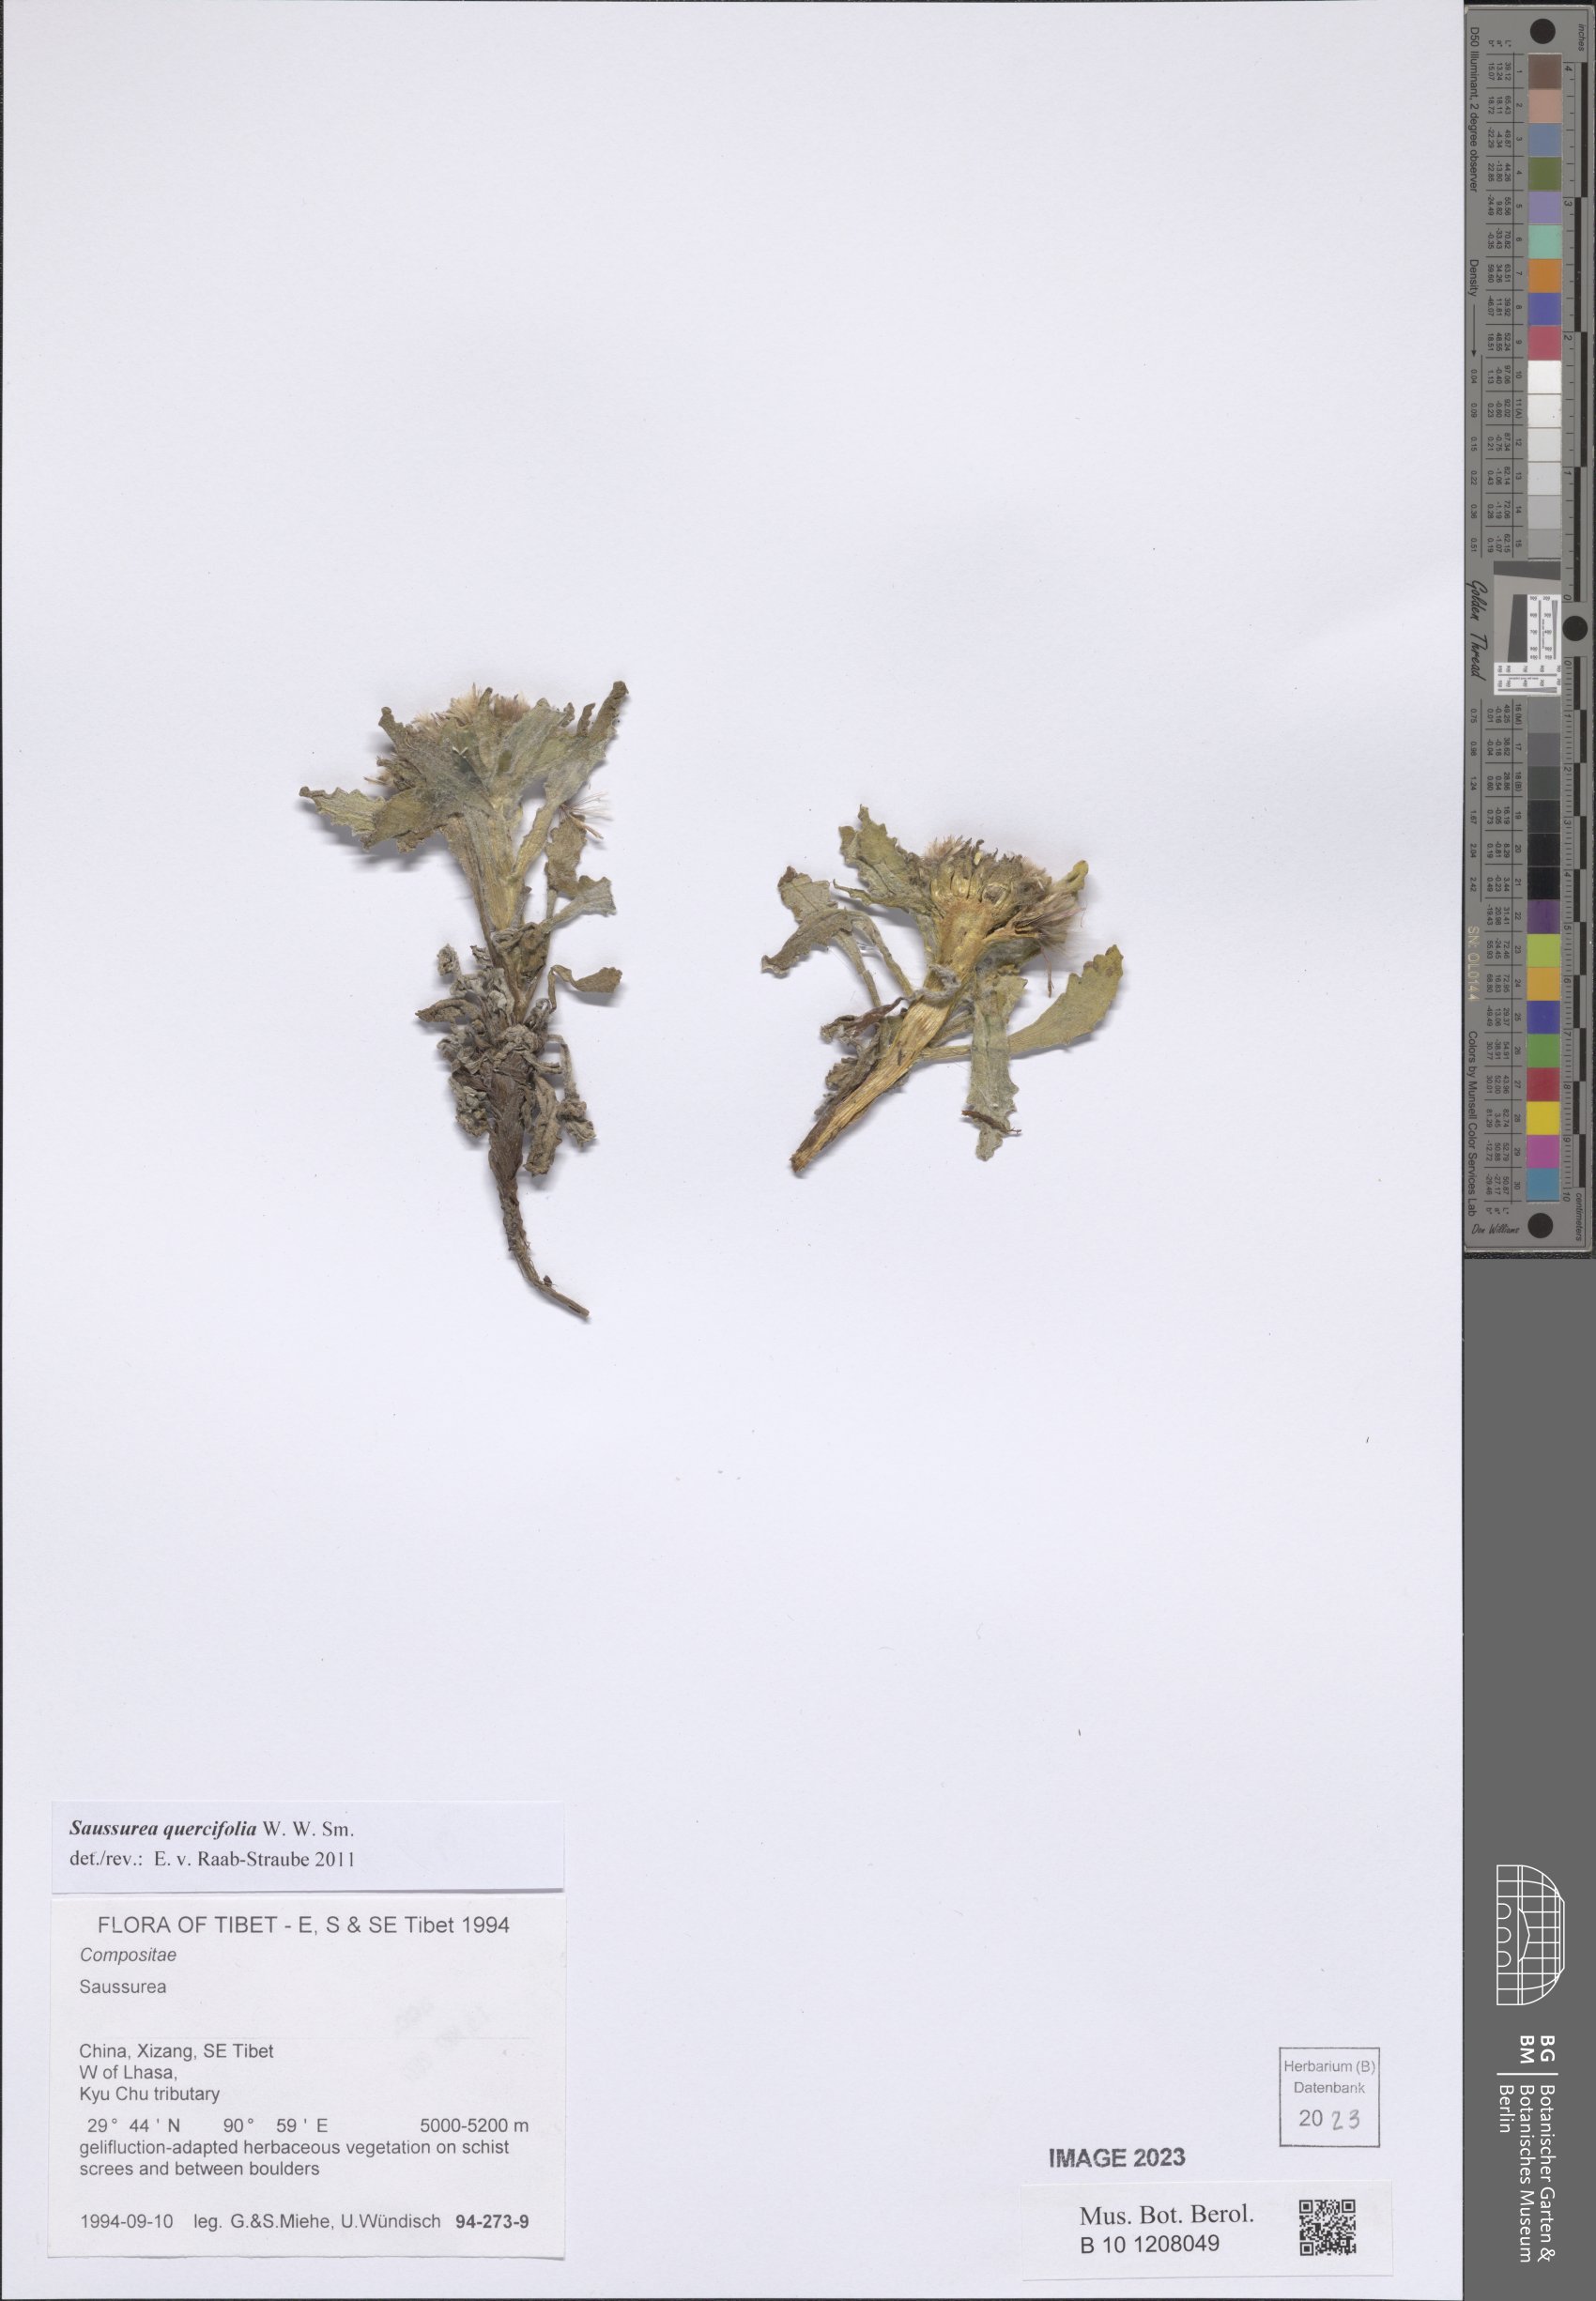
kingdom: Plantae
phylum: Tracheophyta
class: Magnoliopsida
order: Asterales
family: Asteraceae
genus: Saussurea
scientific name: Saussurea quercifolia
